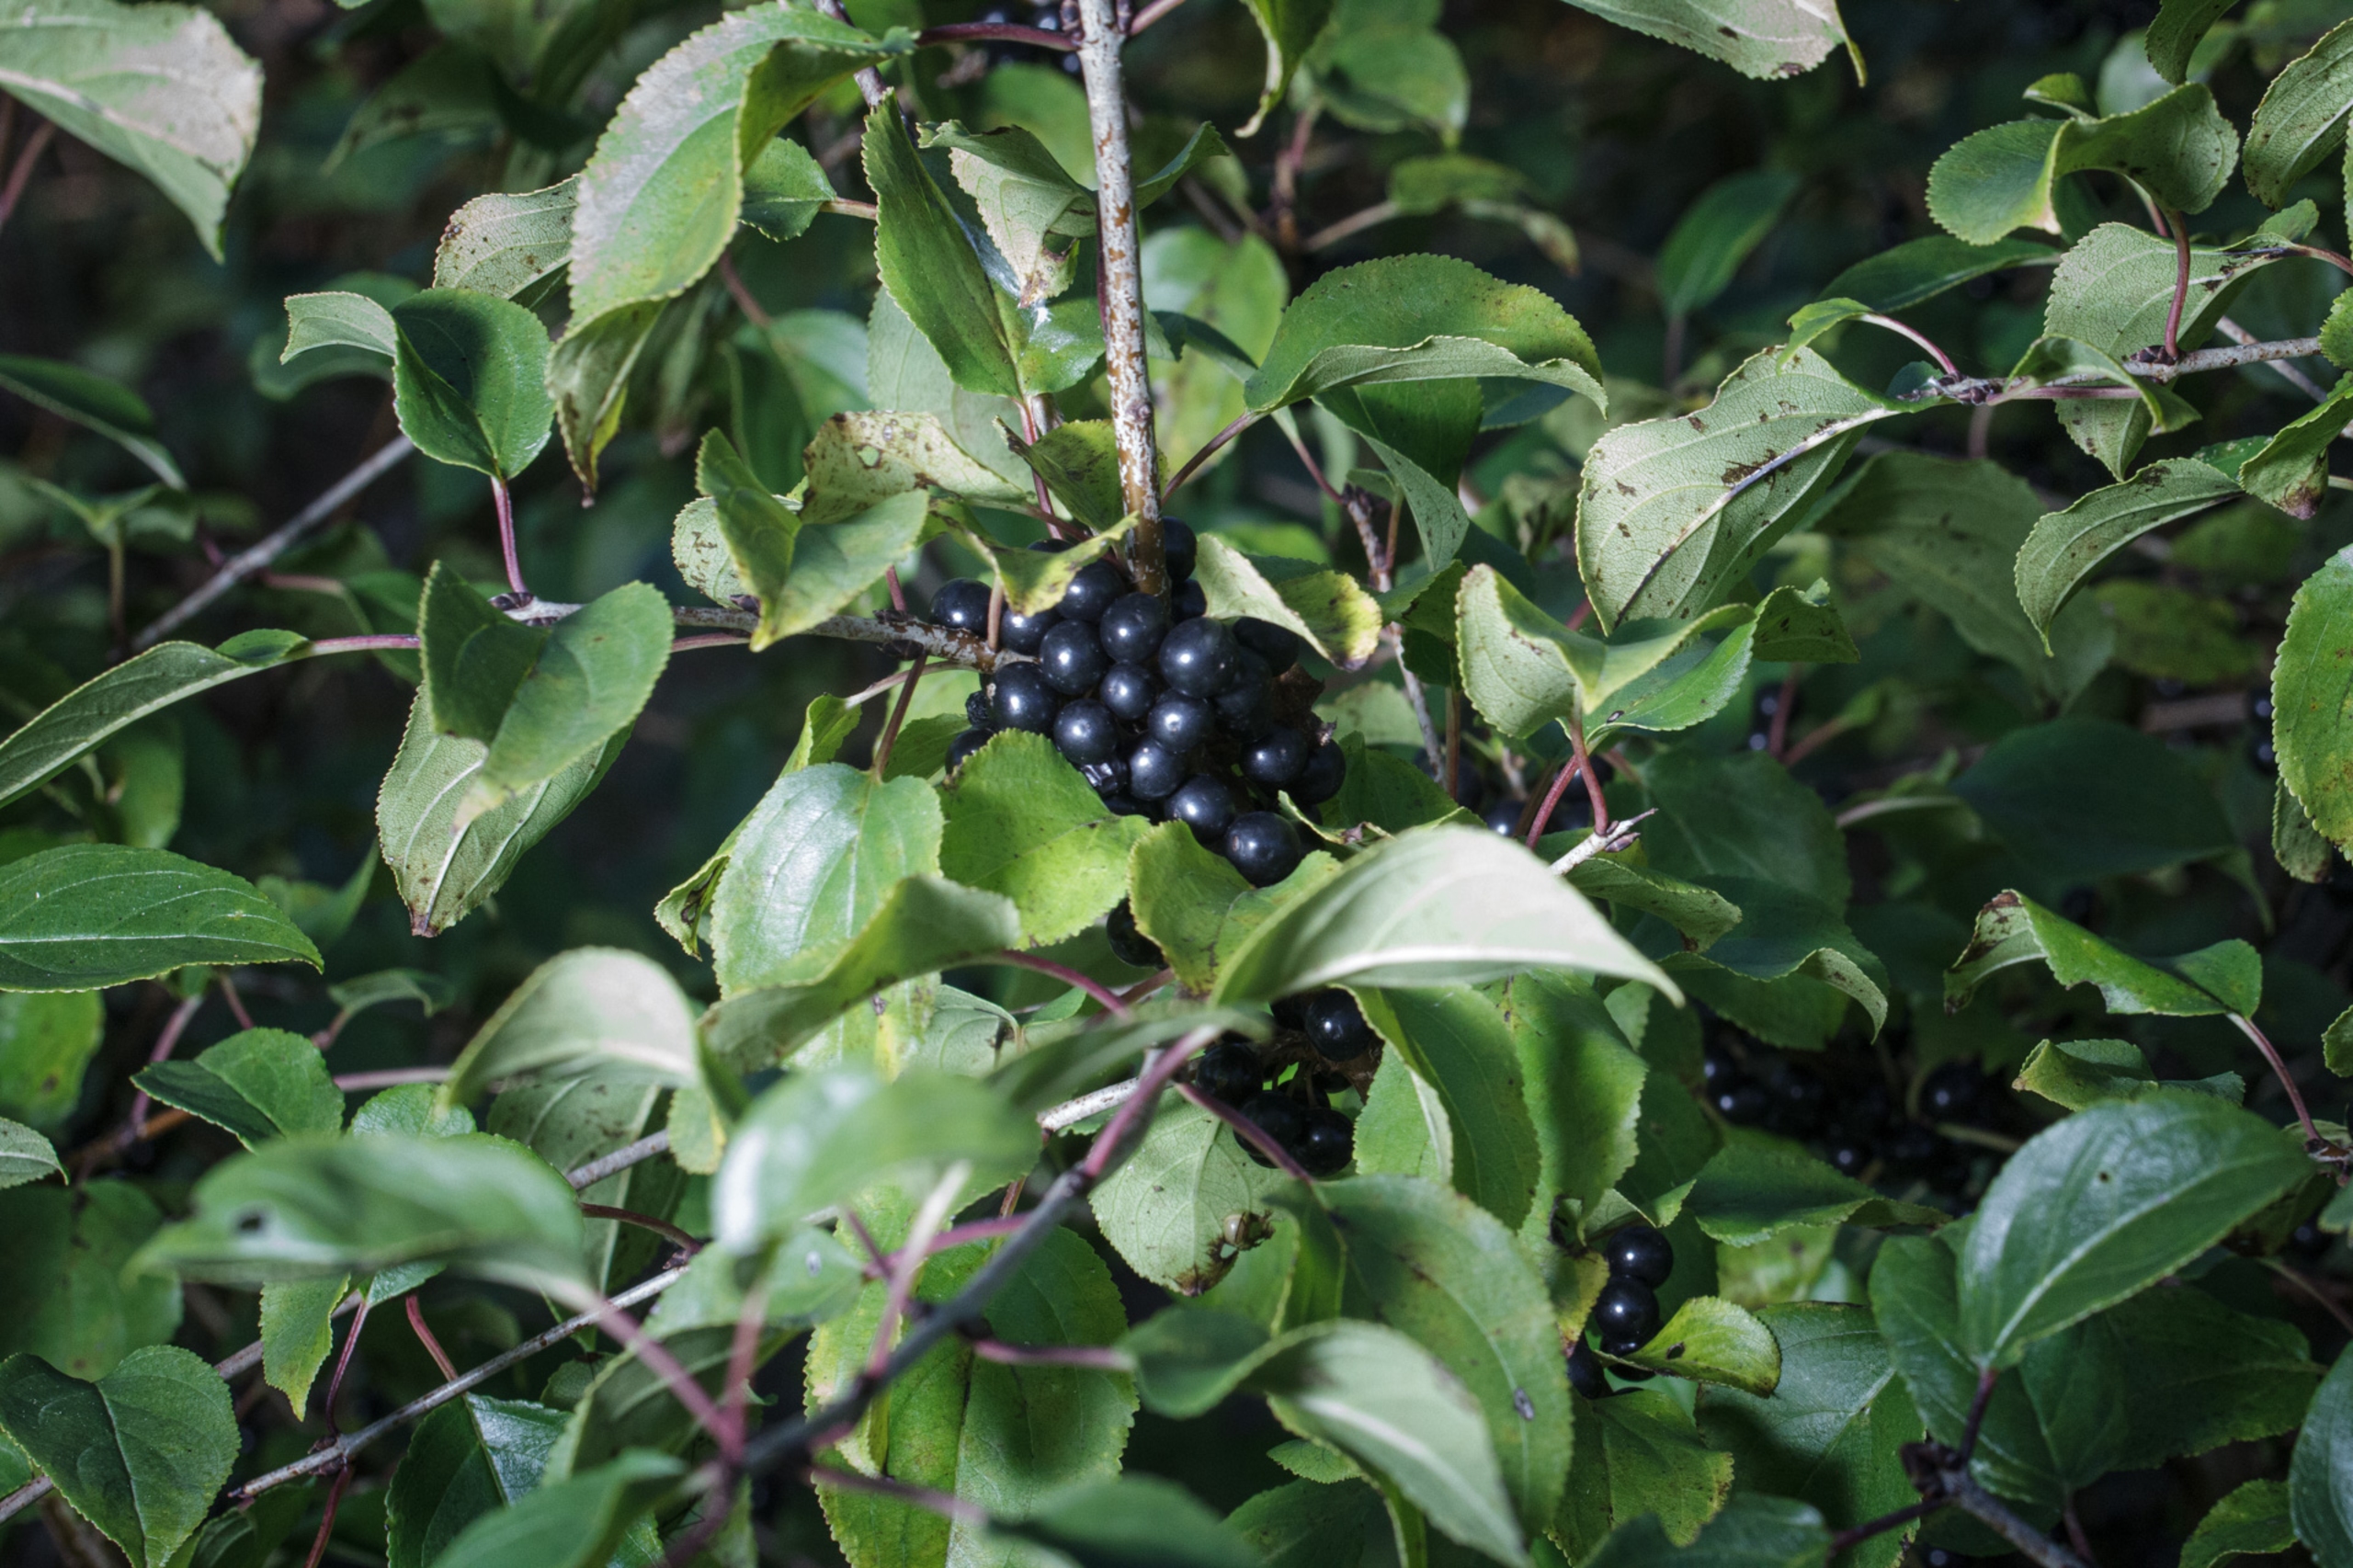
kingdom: Plantae
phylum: Tracheophyta
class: Magnoliopsida
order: Rosales
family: Rhamnaceae
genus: Rhamnus
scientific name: Rhamnus cathartica
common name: Vrietorn
